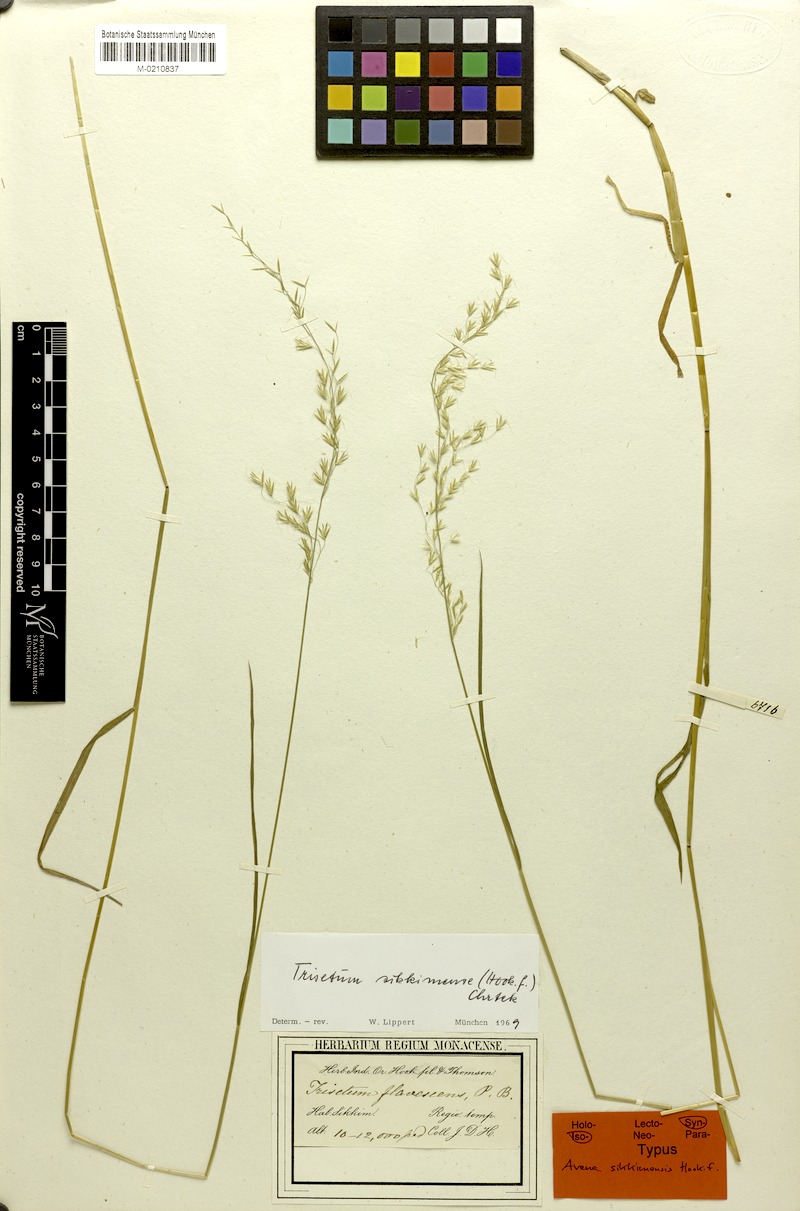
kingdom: Plantae
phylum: Tracheophyta
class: Liliopsida
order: Poales
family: Poaceae
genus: Sibirotrisetum
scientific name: Sibirotrisetum sibiricum
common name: Siberian false oat
